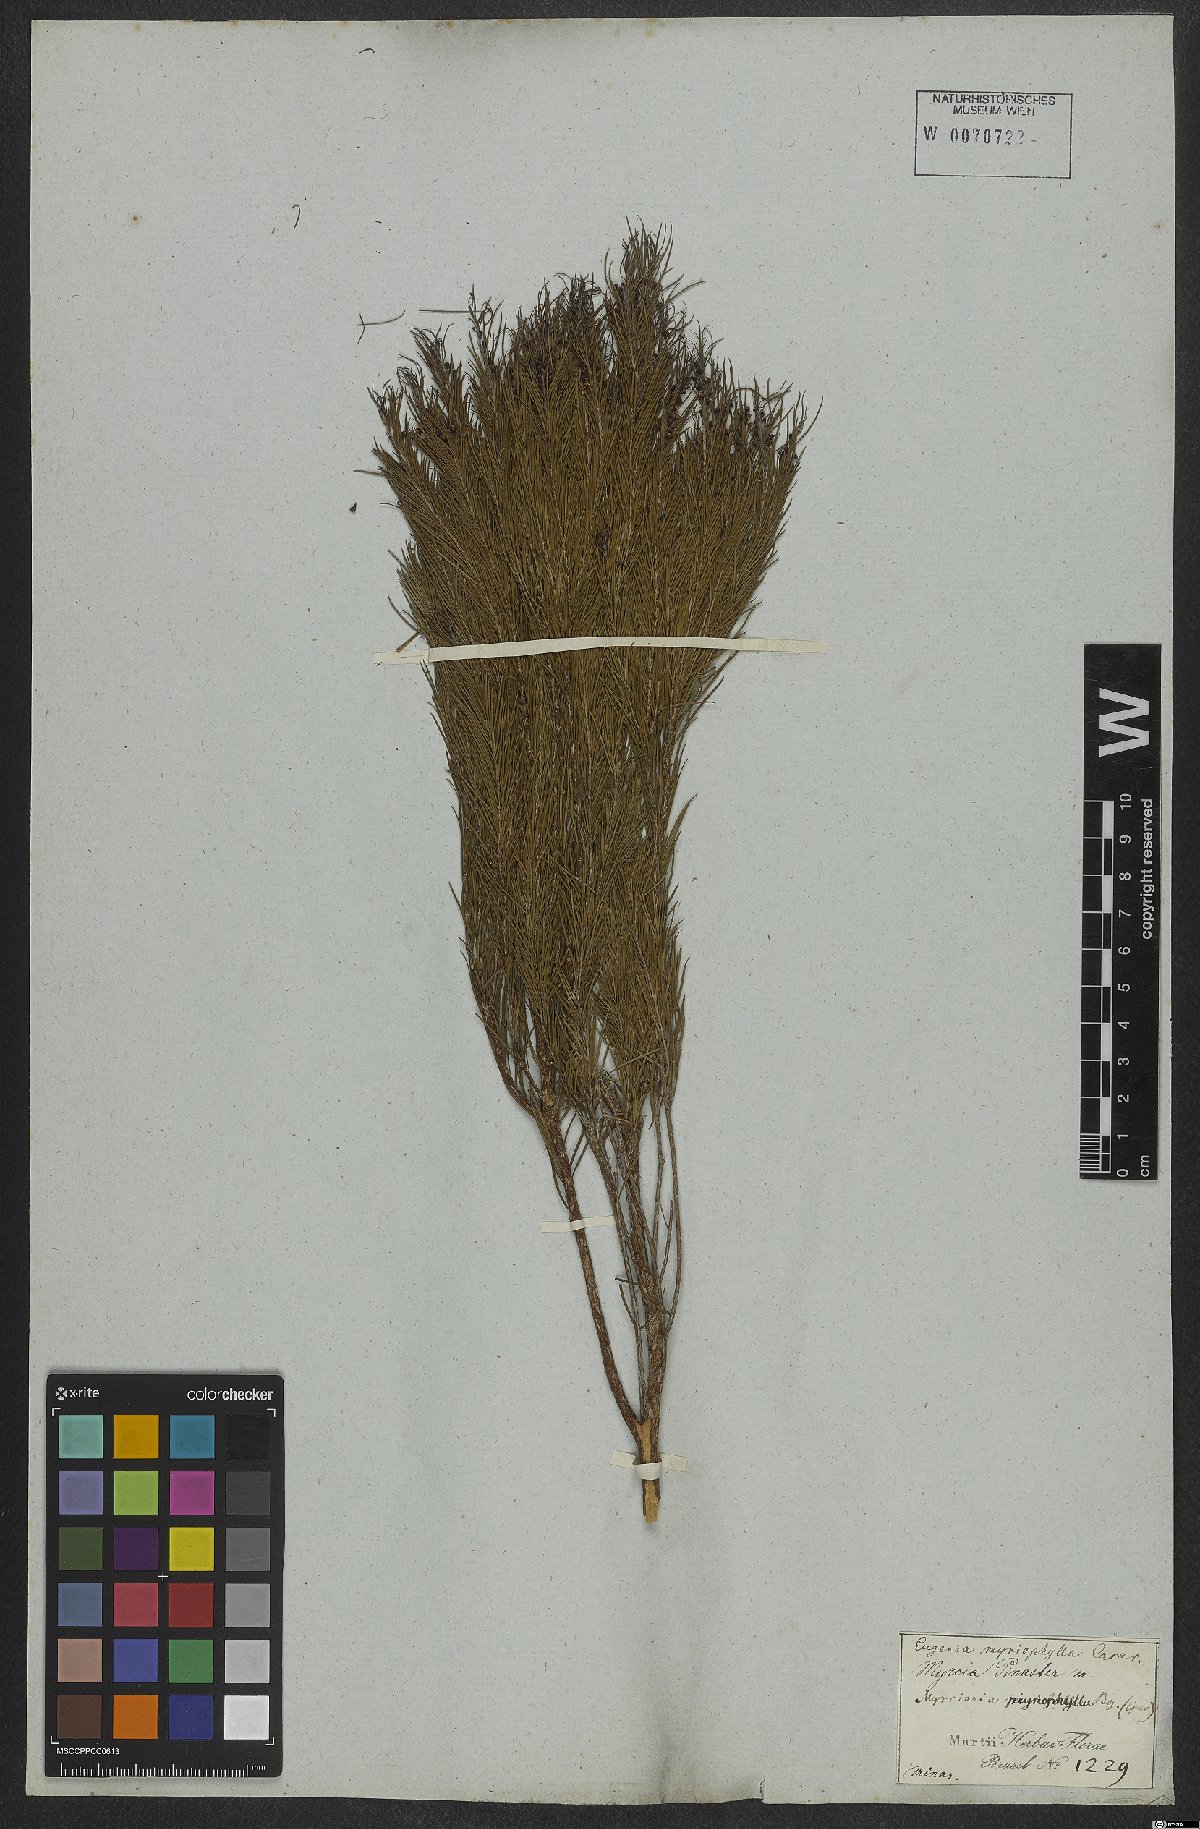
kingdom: Plantae
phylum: Tracheophyta
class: Magnoliopsida
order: Myrtales
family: Myrtaceae
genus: Blepharocalyx
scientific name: Blepharocalyx myriophyllus
